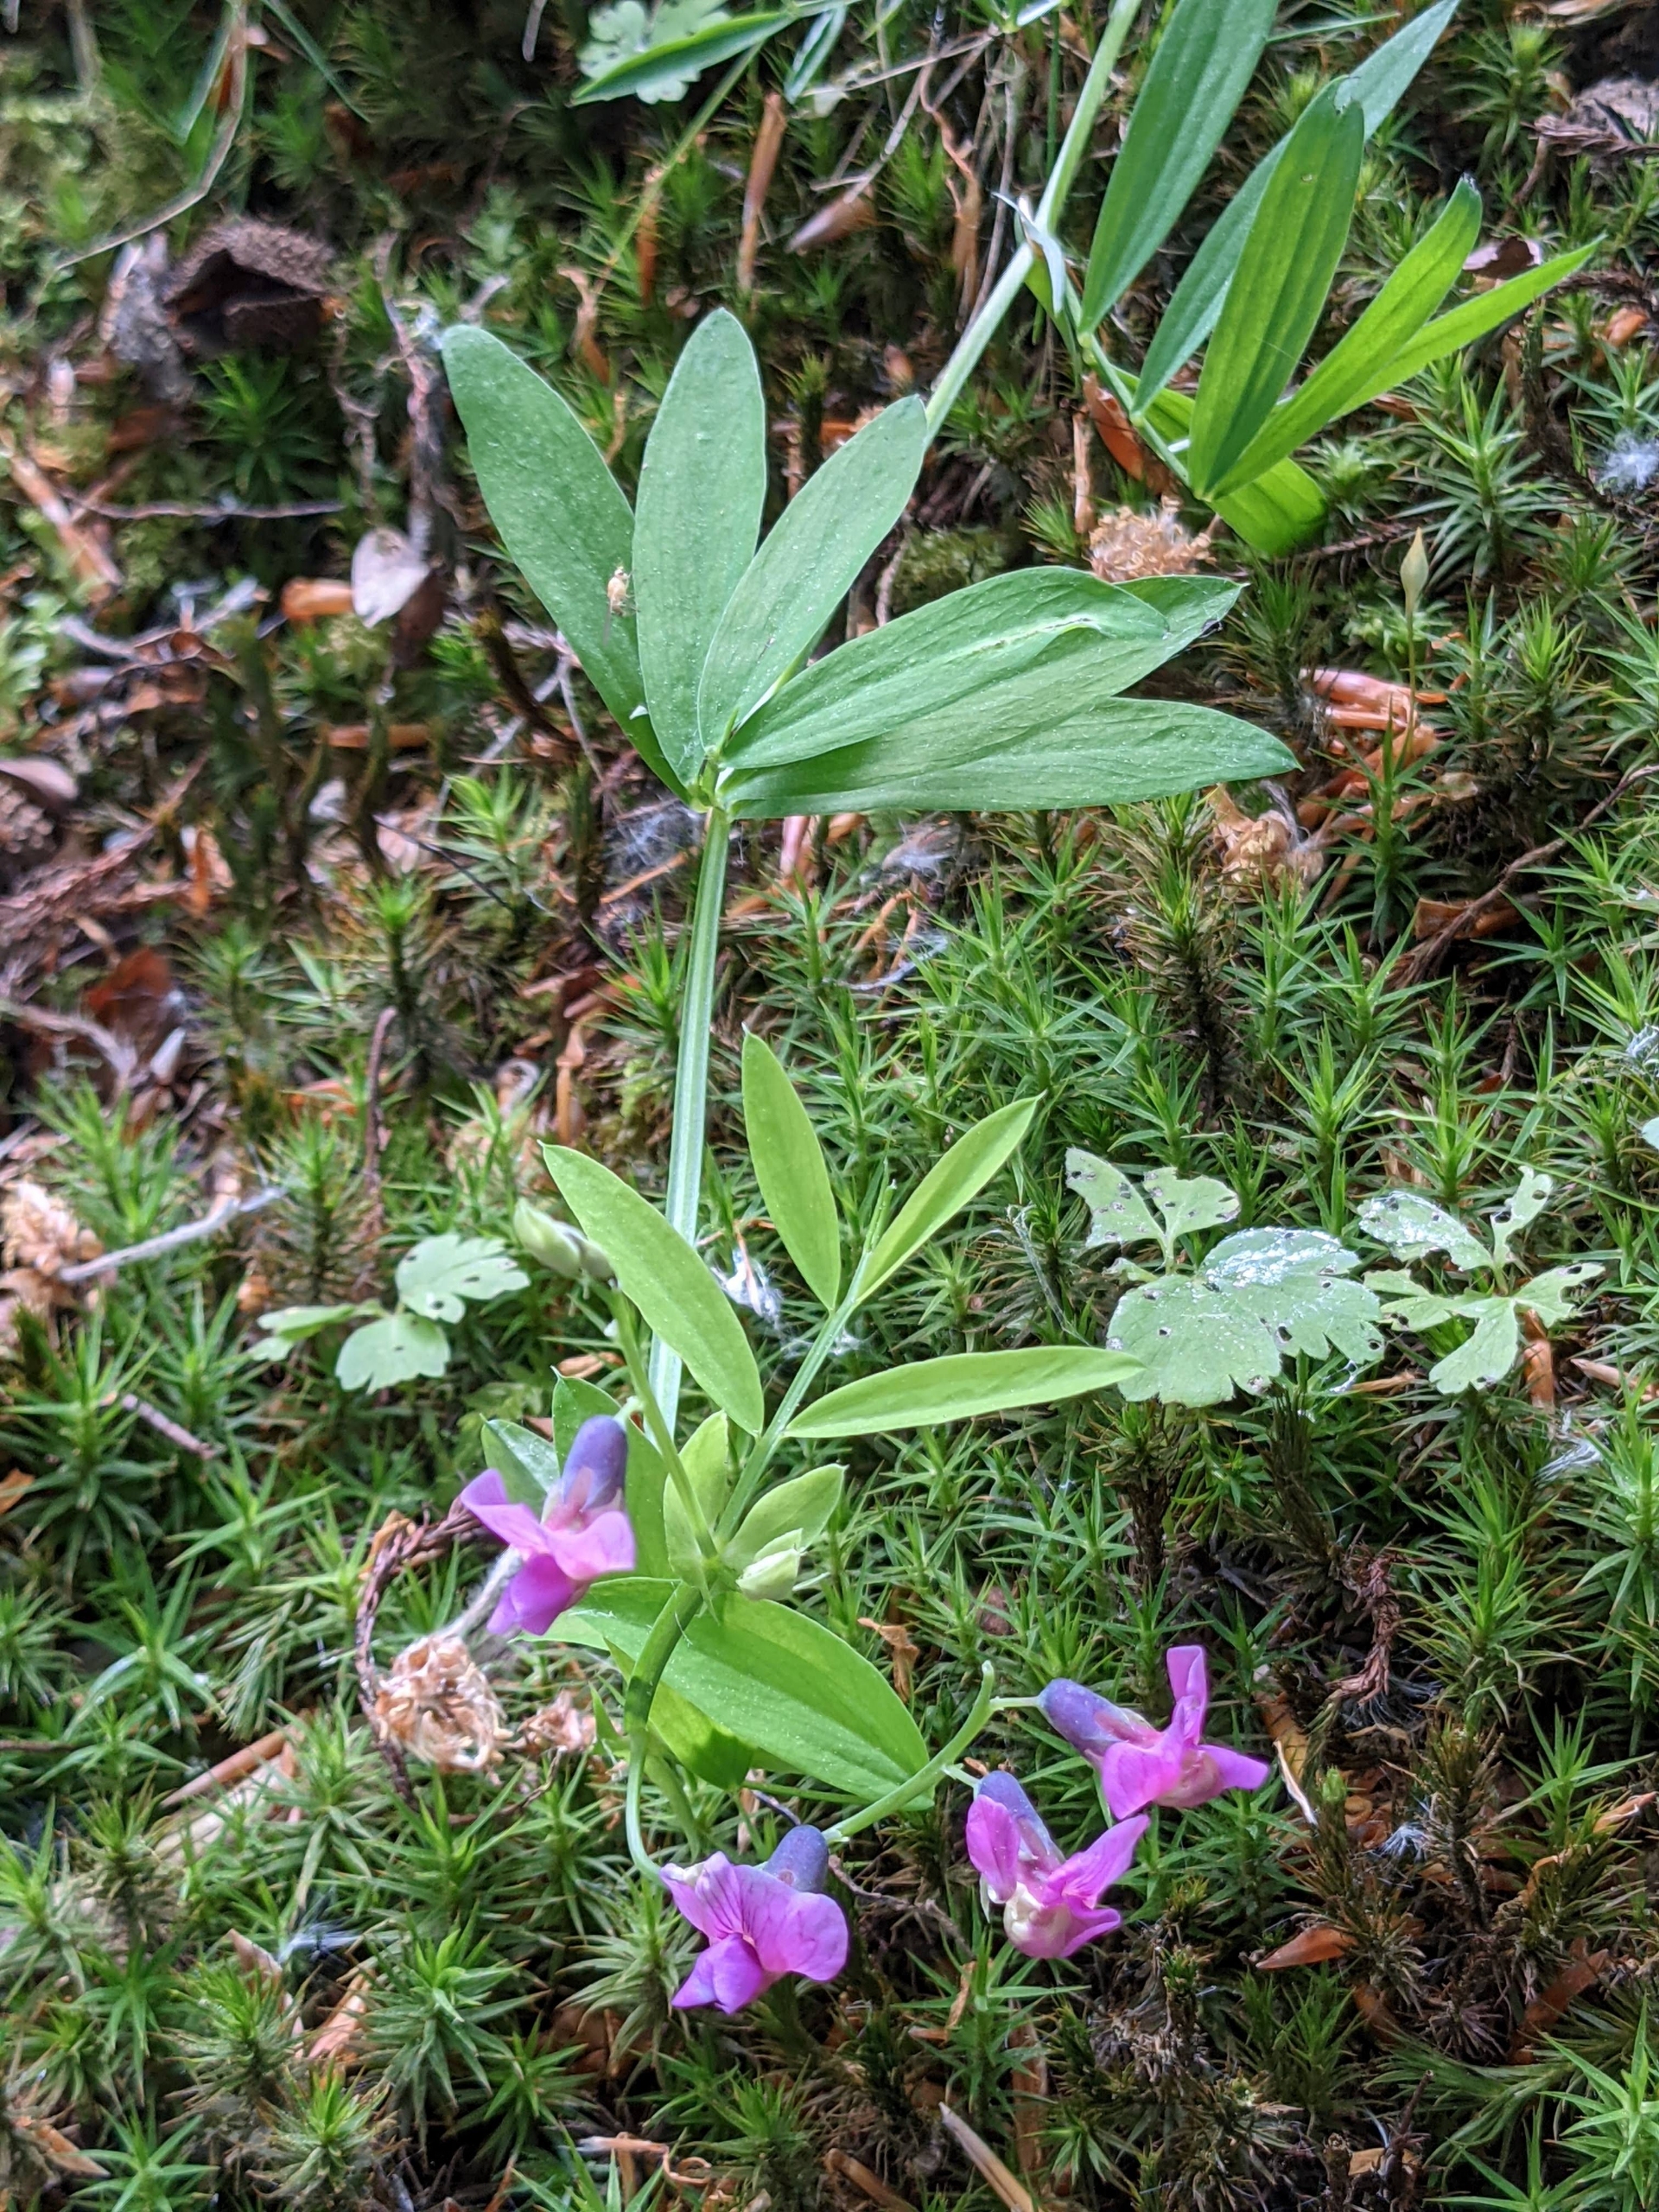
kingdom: Plantae
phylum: Tracheophyta
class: Magnoliopsida
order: Fabales
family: Fabaceae
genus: Lathyrus
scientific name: Lathyrus linifolius
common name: Krat-fladbælg
